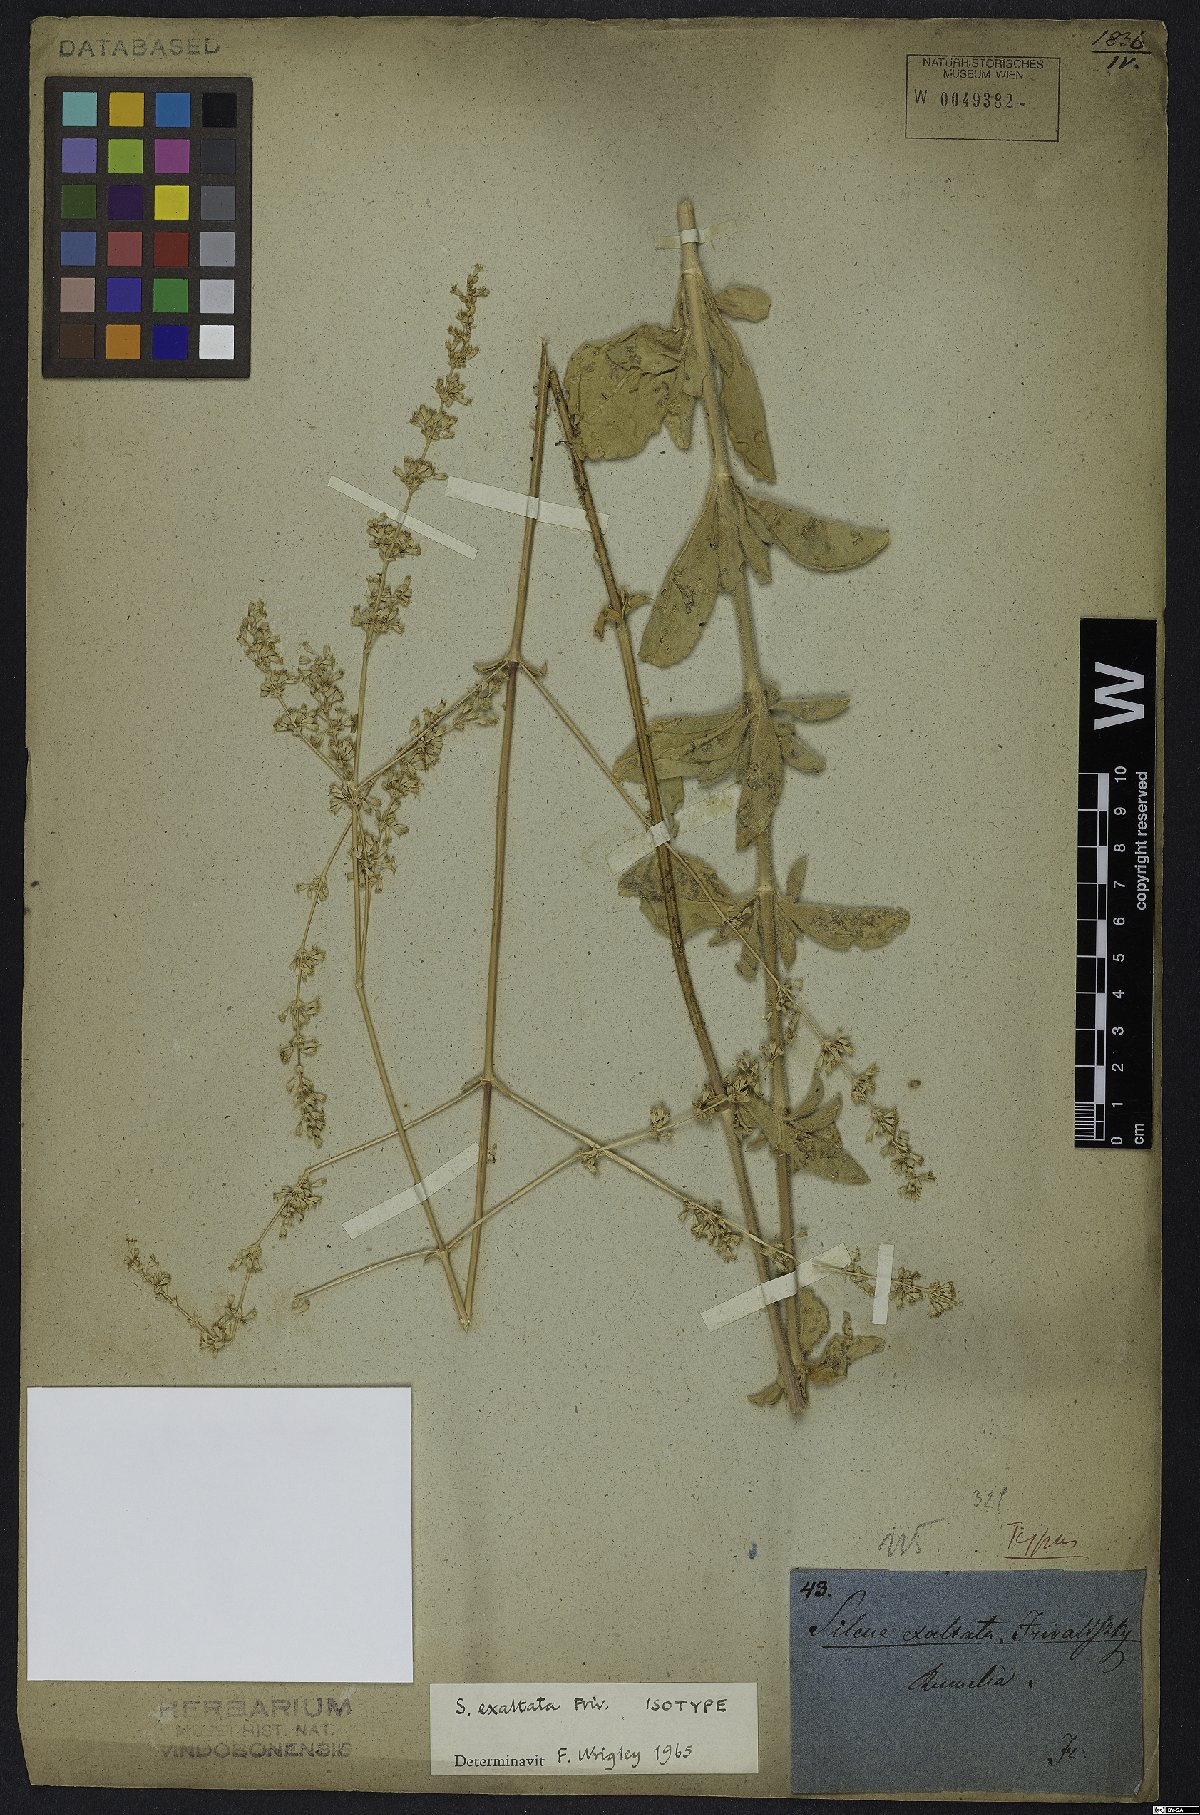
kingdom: Plantae
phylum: Tracheophyta
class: Magnoliopsida
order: Caryophyllales
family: Caryophyllaceae
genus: Silene
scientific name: Silene densiflora
